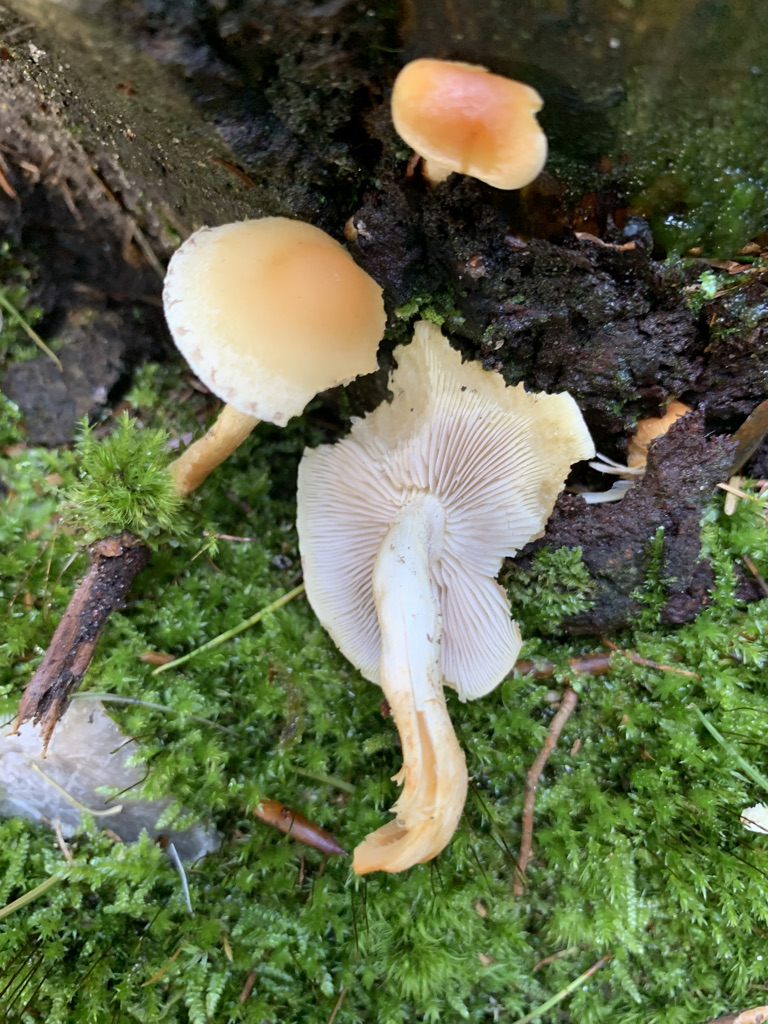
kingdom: Fungi
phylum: Basidiomycota
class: Agaricomycetes
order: Agaricales
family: Strophariaceae
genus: Hypholoma
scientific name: Hypholoma capnoides
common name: gran-svovlhat
